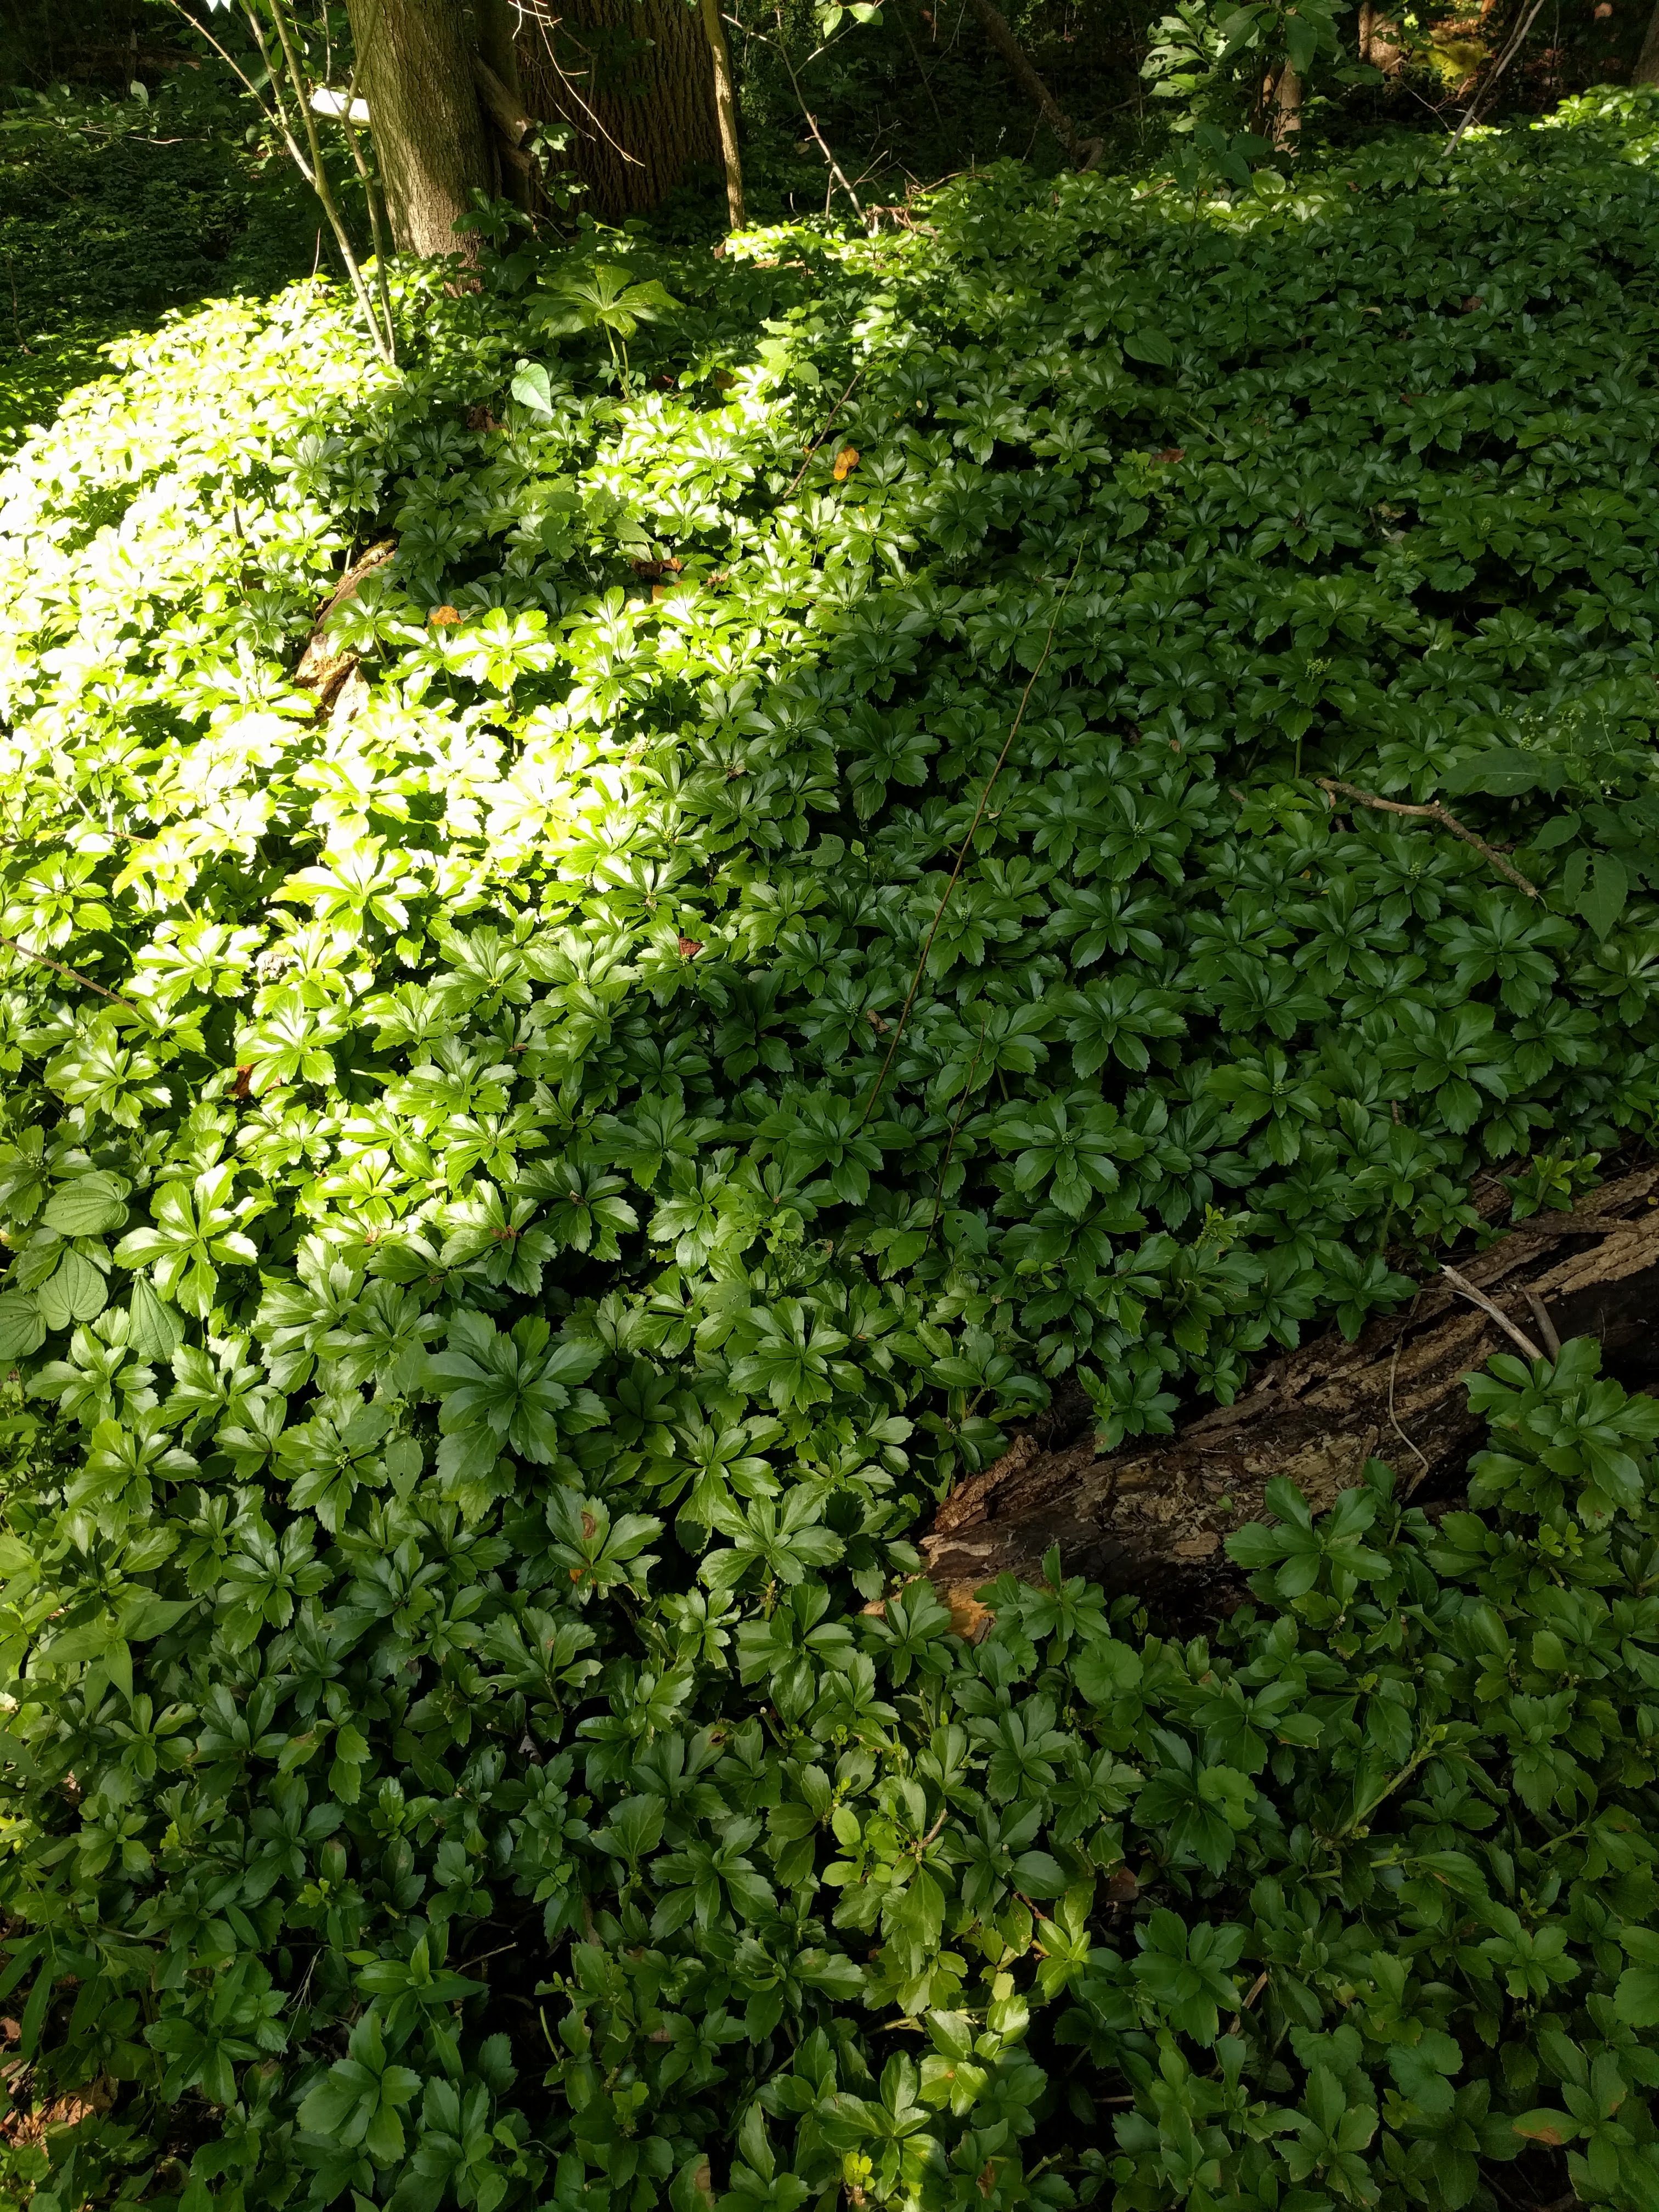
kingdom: Plantae
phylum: Tracheophyta
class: Magnoliopsida
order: Buxales
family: Buxaceae
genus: Pachysandra
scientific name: Pachysandra terminalis
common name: Japanese pachysandra
